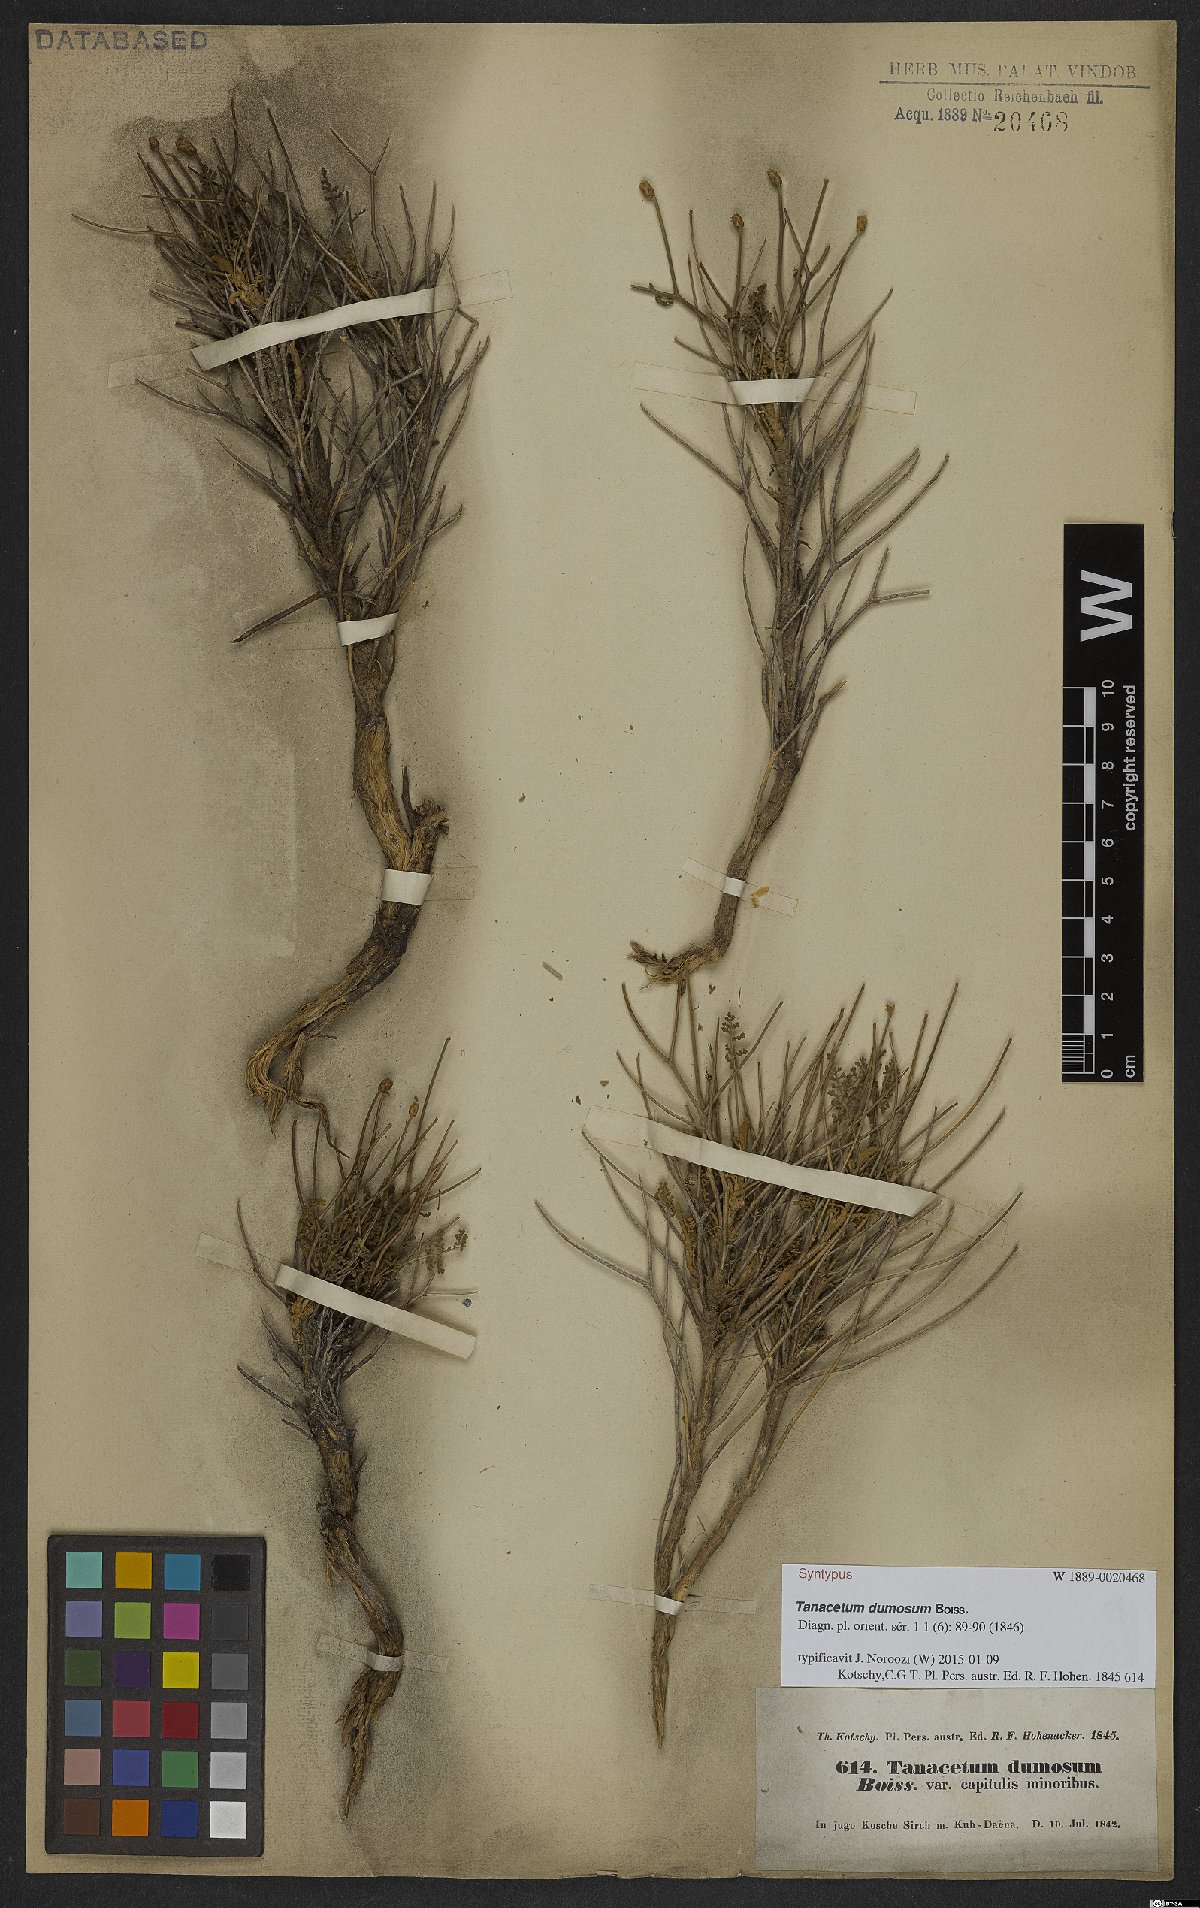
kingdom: Plantae
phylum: Tracheophyta
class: Magnoliopsida
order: Asterales
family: Asteraceae
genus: Tanacetum
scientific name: Tanacetum dumosum
